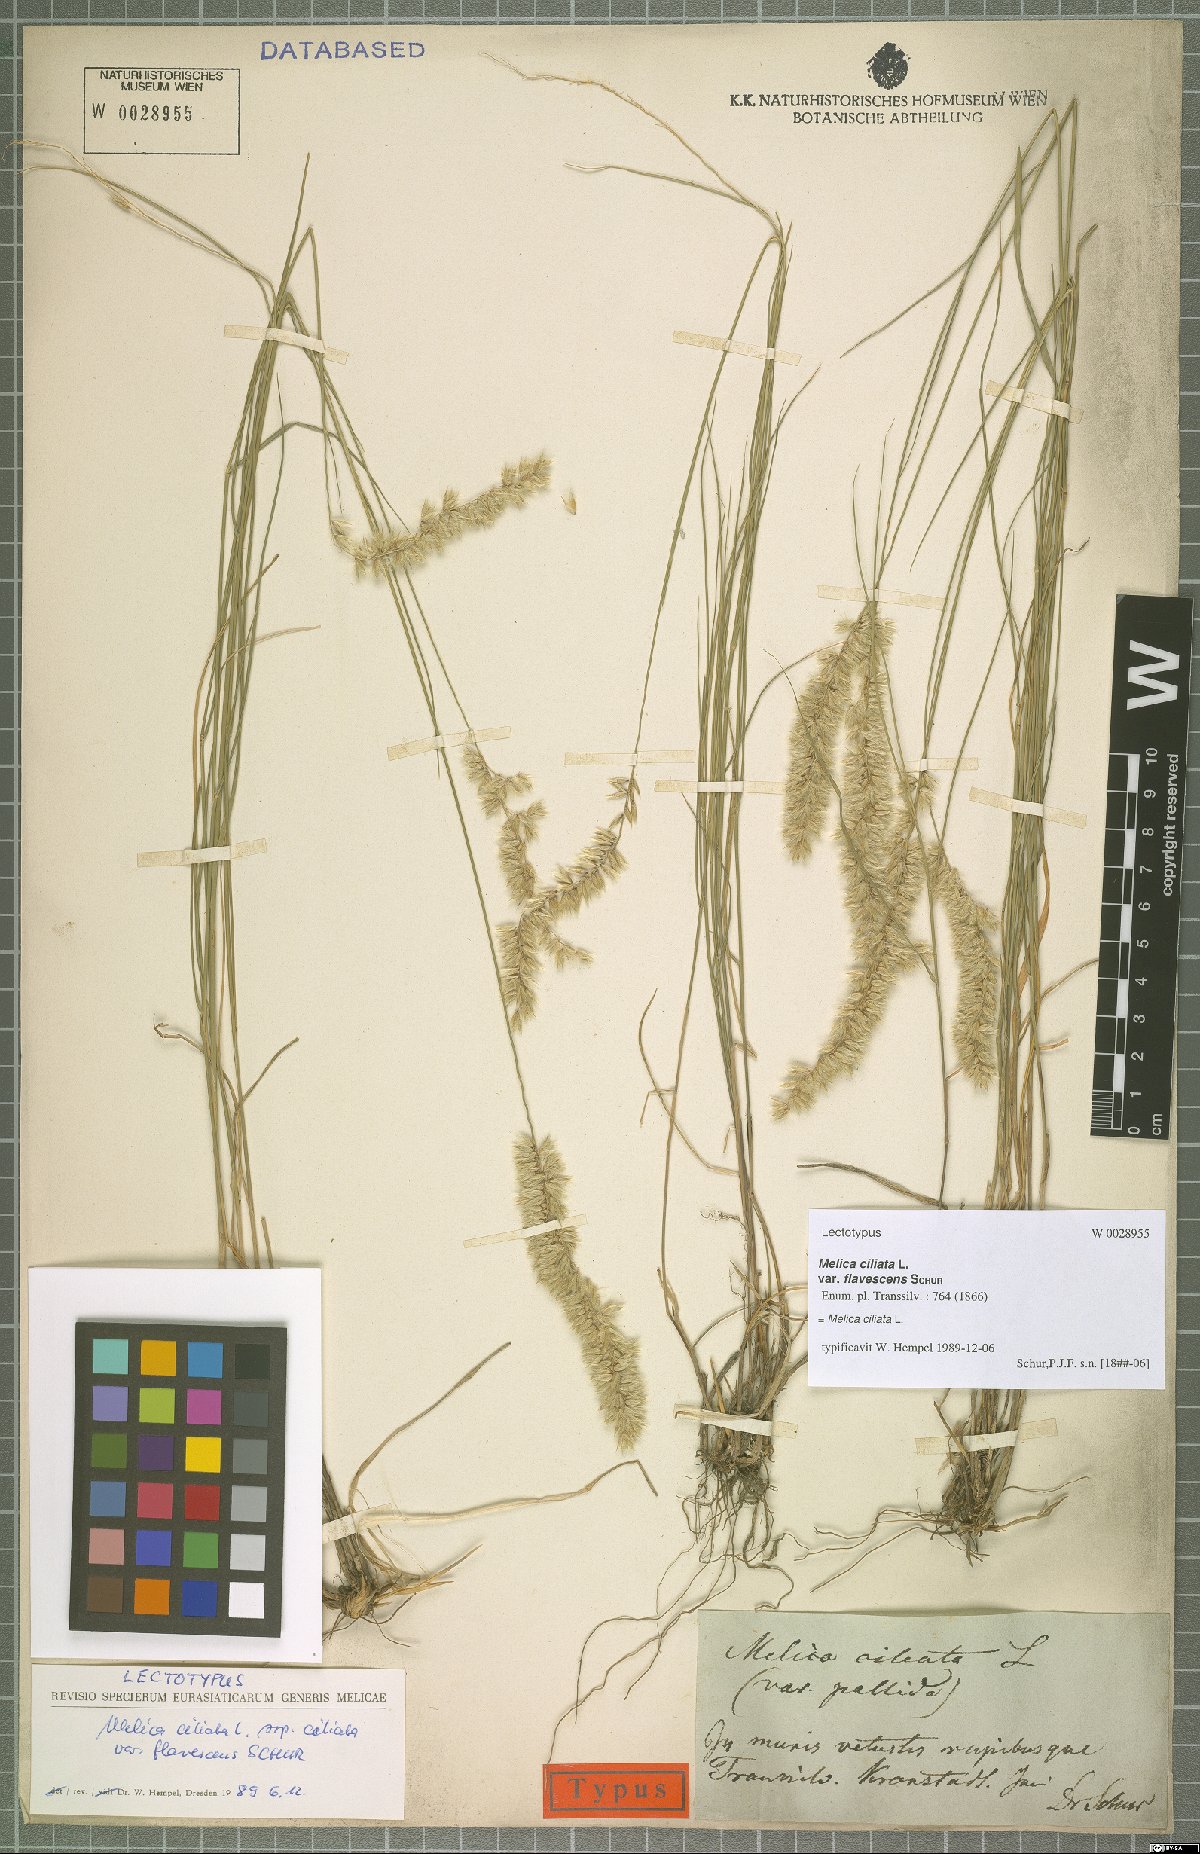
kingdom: Plantae
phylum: Tracheophyta
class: Liliopsida
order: Poales
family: Poaceae
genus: Melica
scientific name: Melica ciliata
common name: Hairy melicgrass
